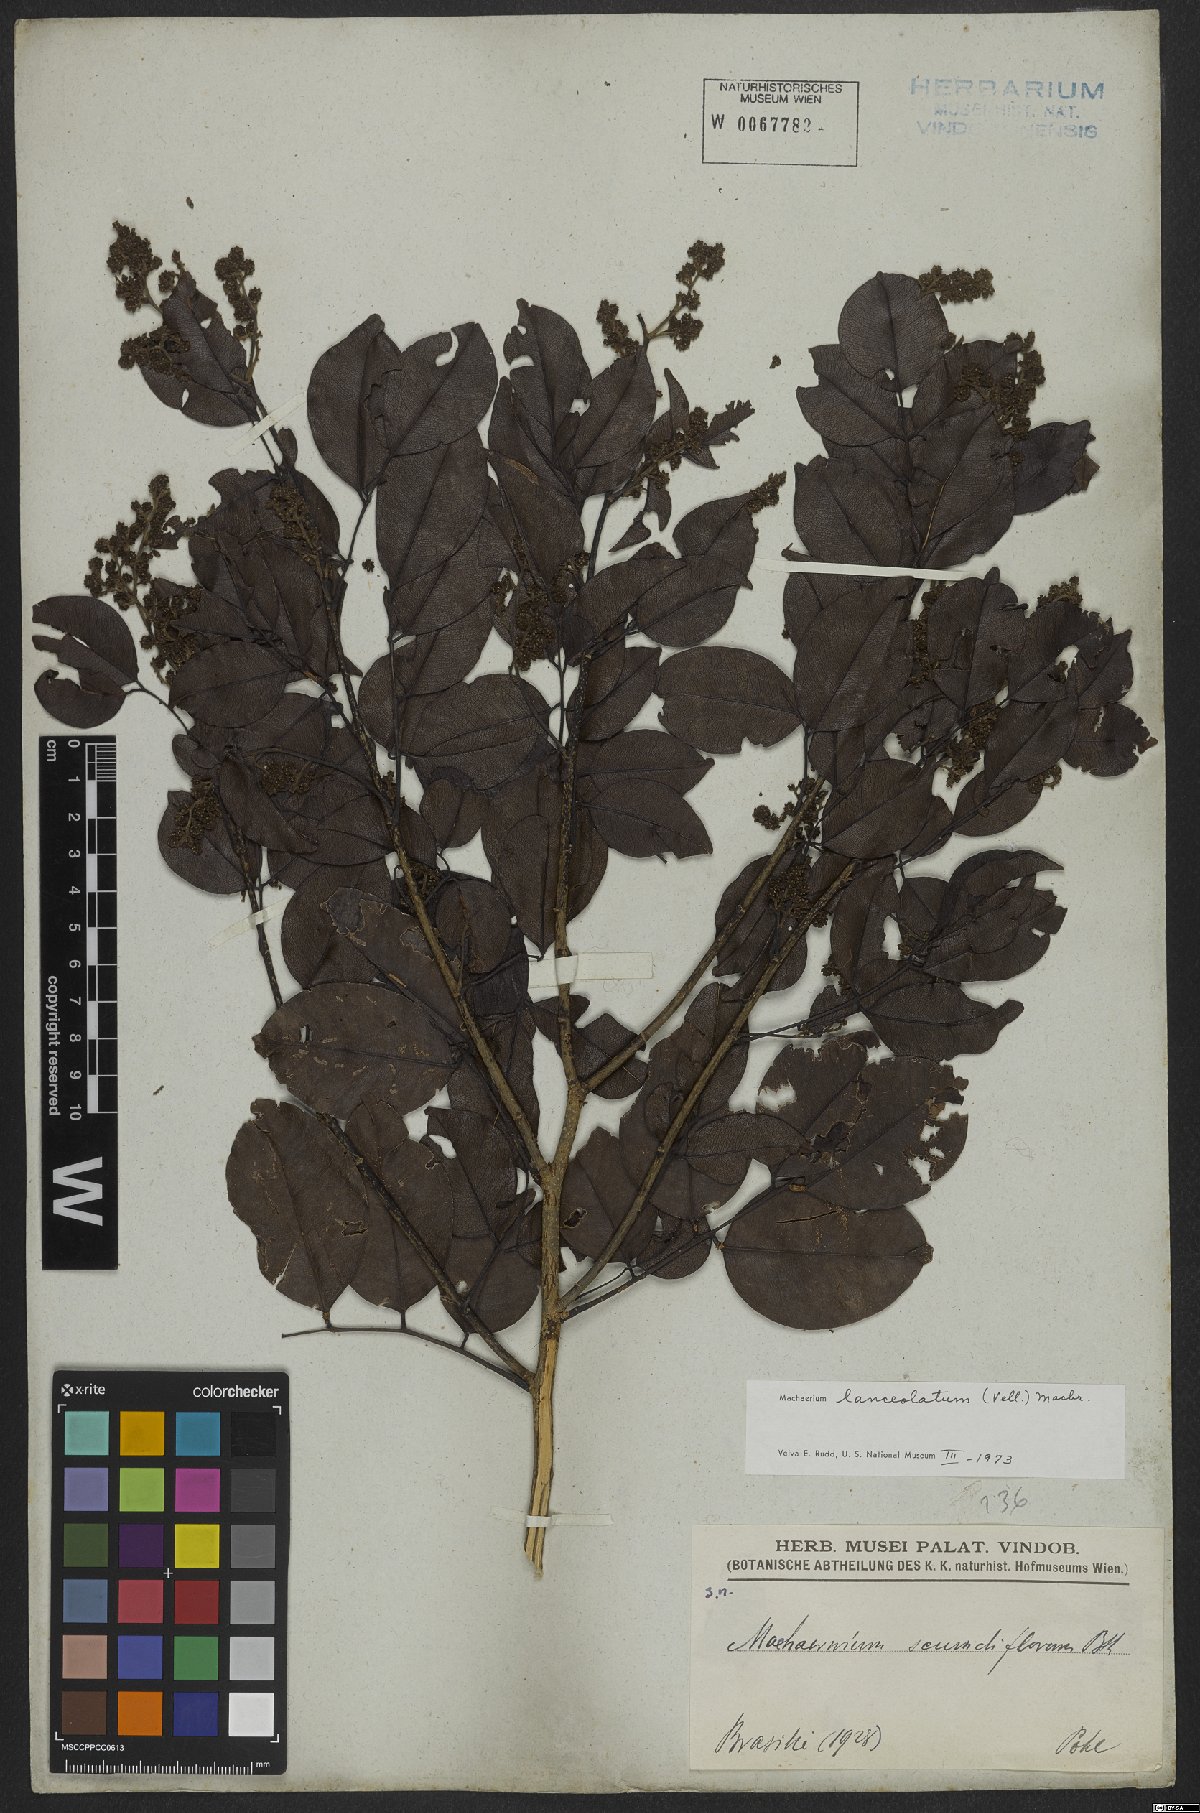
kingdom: Plantae
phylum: Tracheophyta
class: Magnoliopsida
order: Fabales
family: Fabaceae
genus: Machaerium
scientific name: Machaerium lanceolatum
